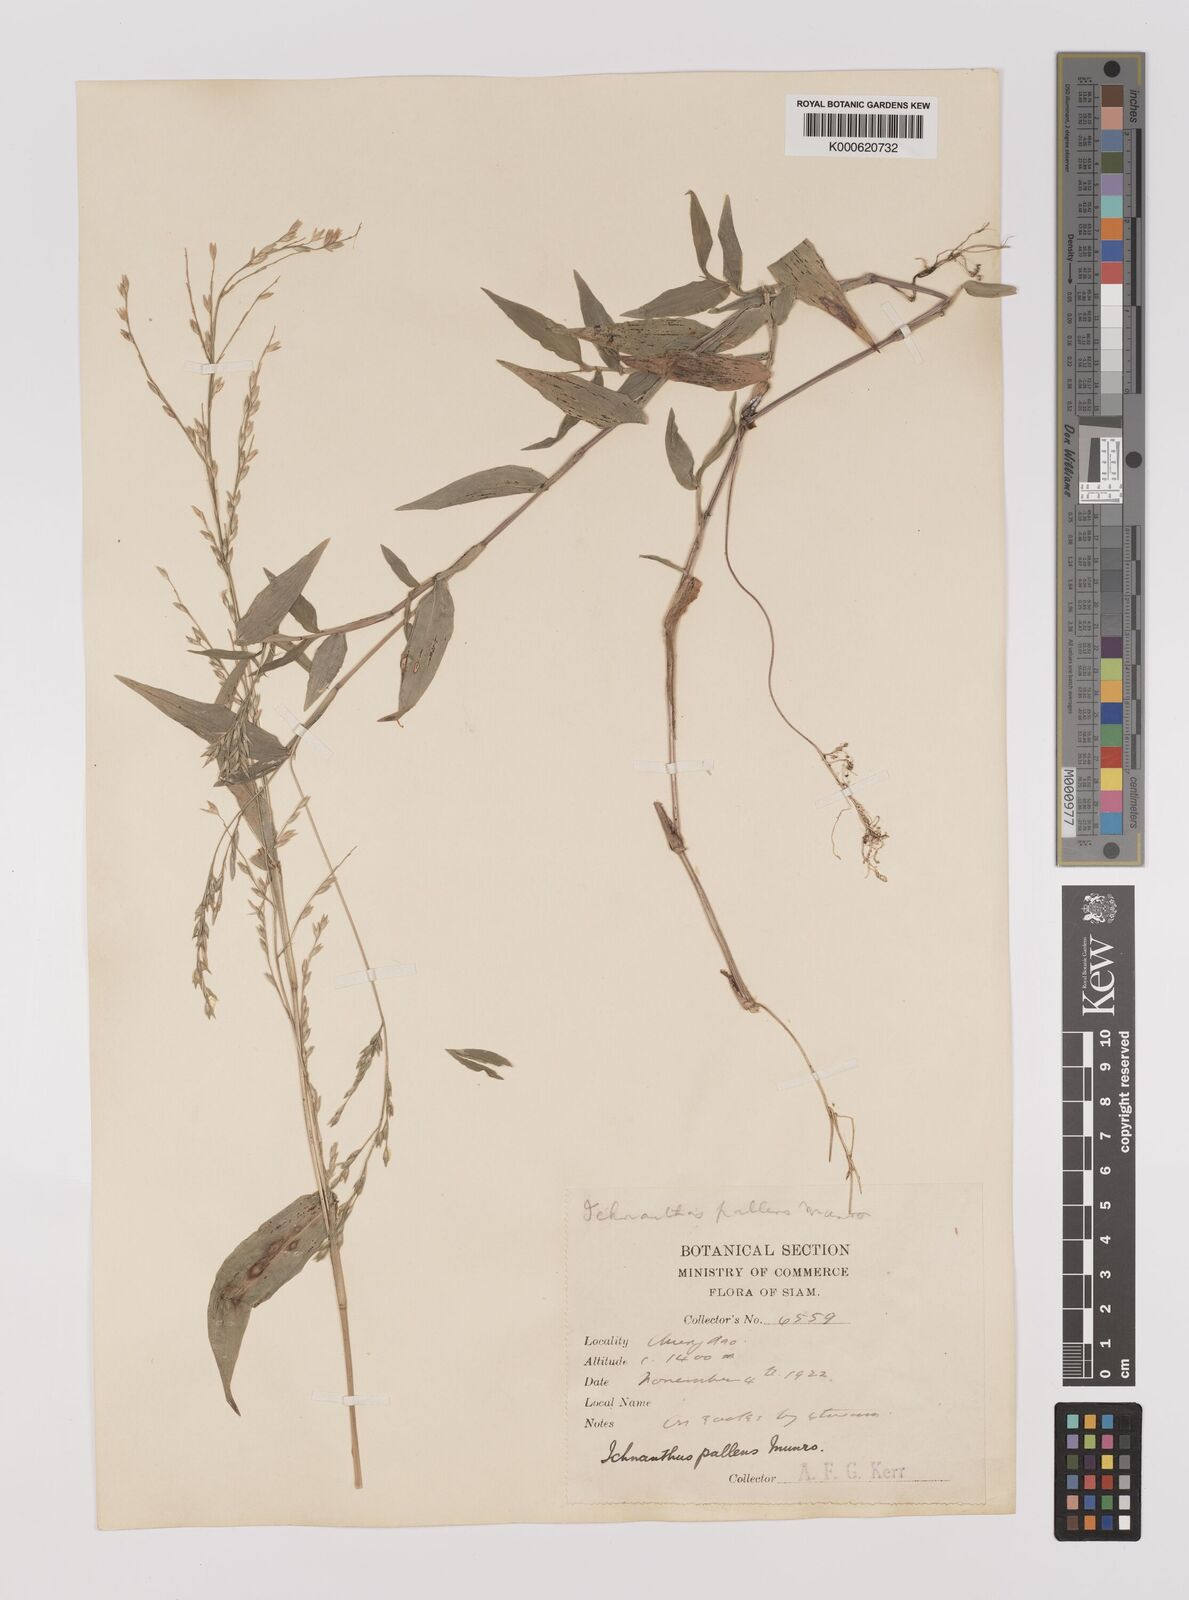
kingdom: Plantae
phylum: Tracheophyta
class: Liliopsida
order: Poales
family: Poaceae
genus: Ichnanthus
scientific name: Ichnanthus
